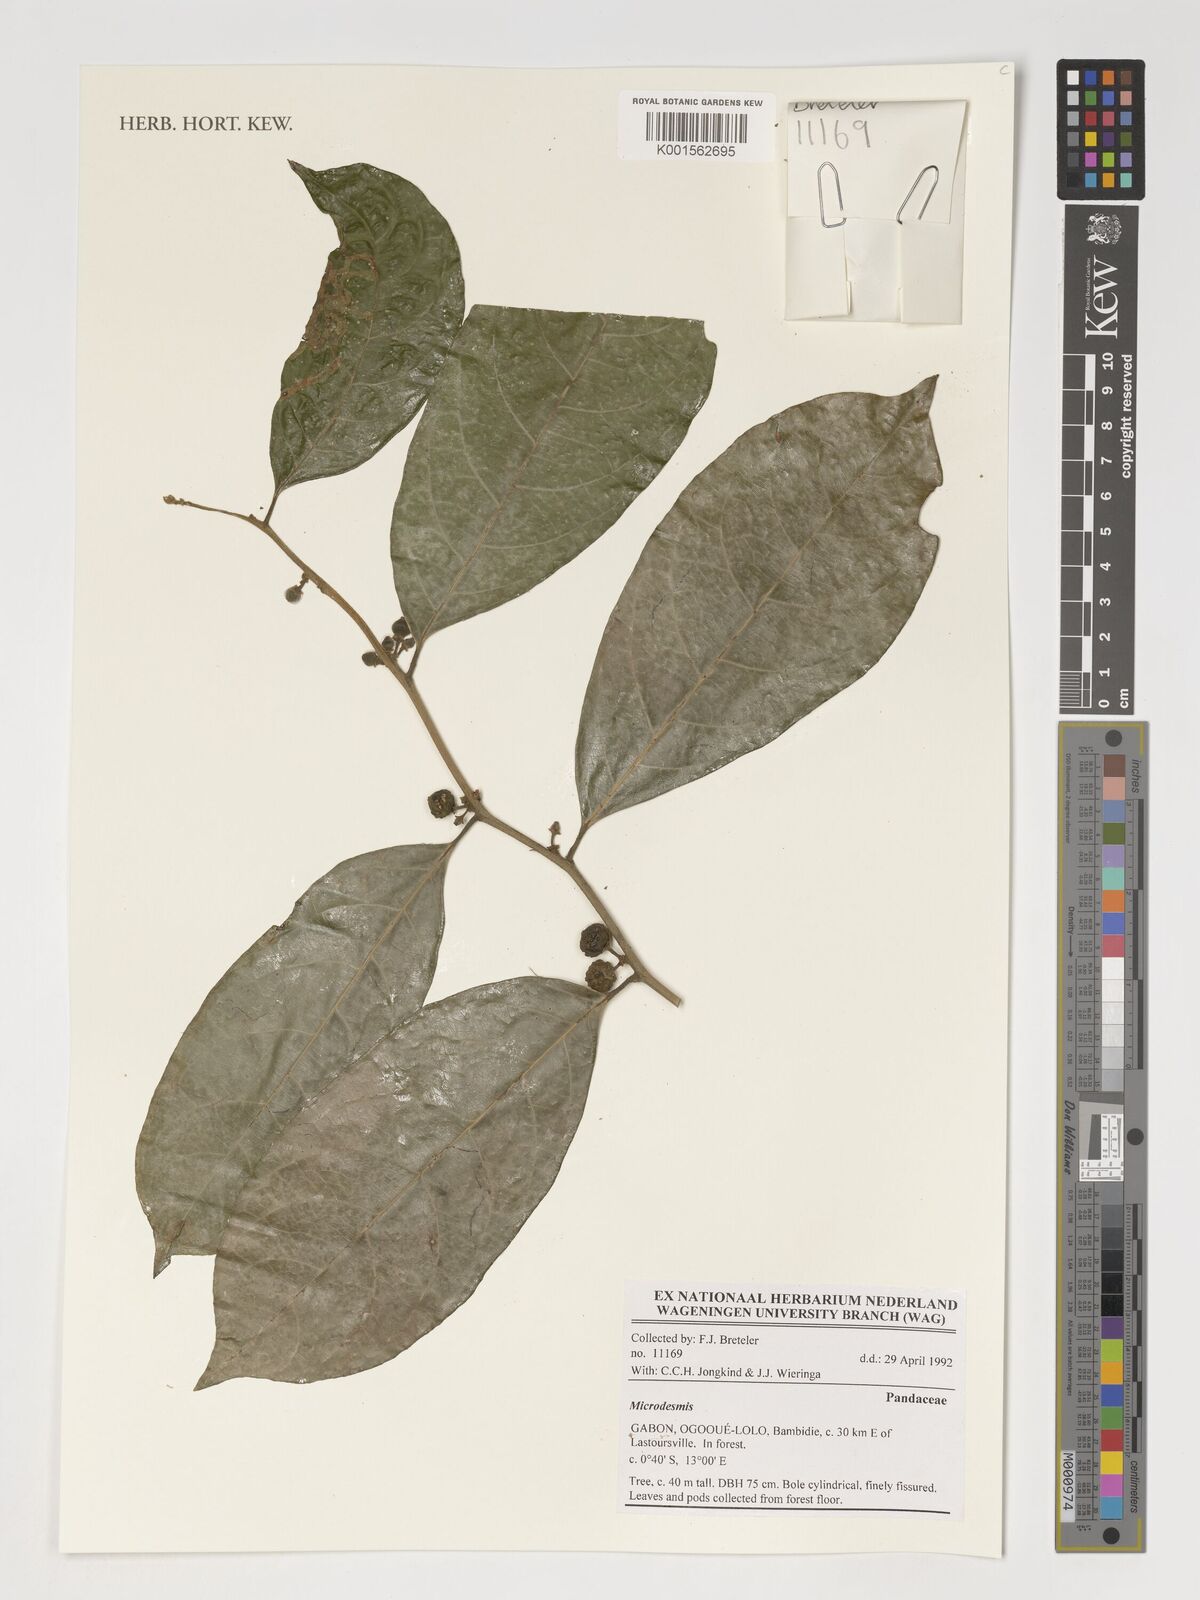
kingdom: Plantae
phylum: Tracheophyta
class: Magnoliopsida
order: Malpighiales
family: Pandaceae
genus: Microdesmis
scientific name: Microdesmis
